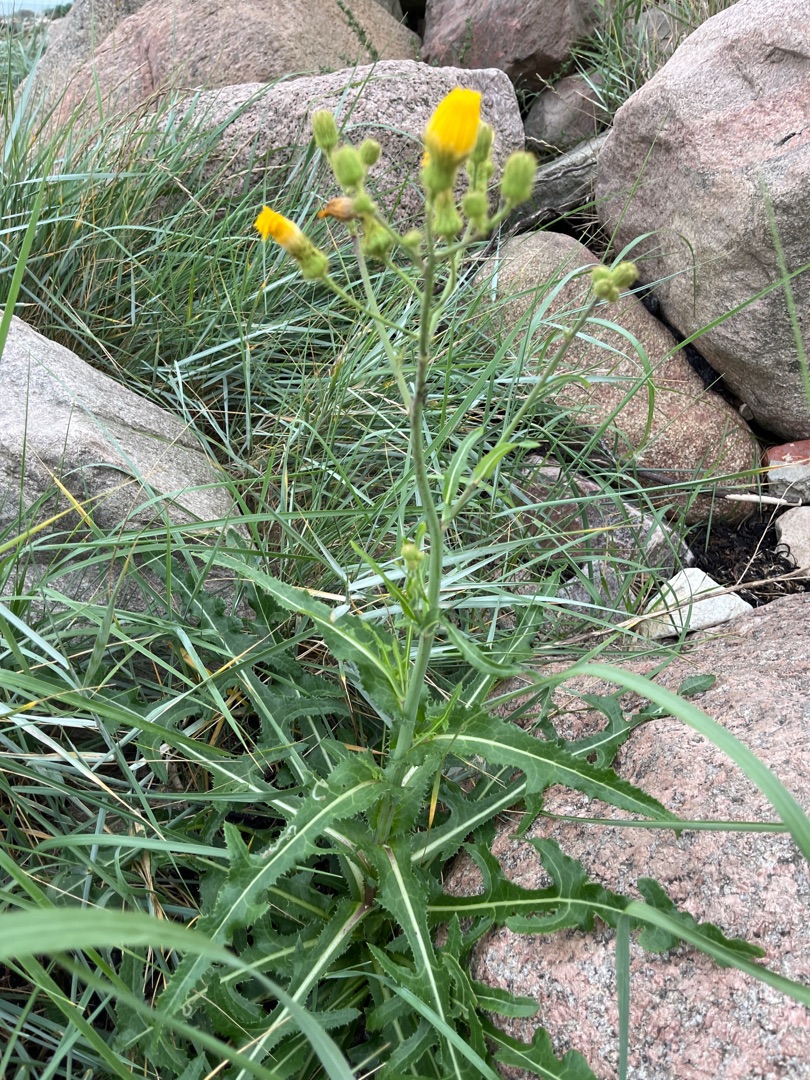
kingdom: Plantae
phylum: Tracheophyta
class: Magnoliopsida
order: Asterales
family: Asteraceae
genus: Sonchus
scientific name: Sonchus arvensis
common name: Ager-svinemælk
